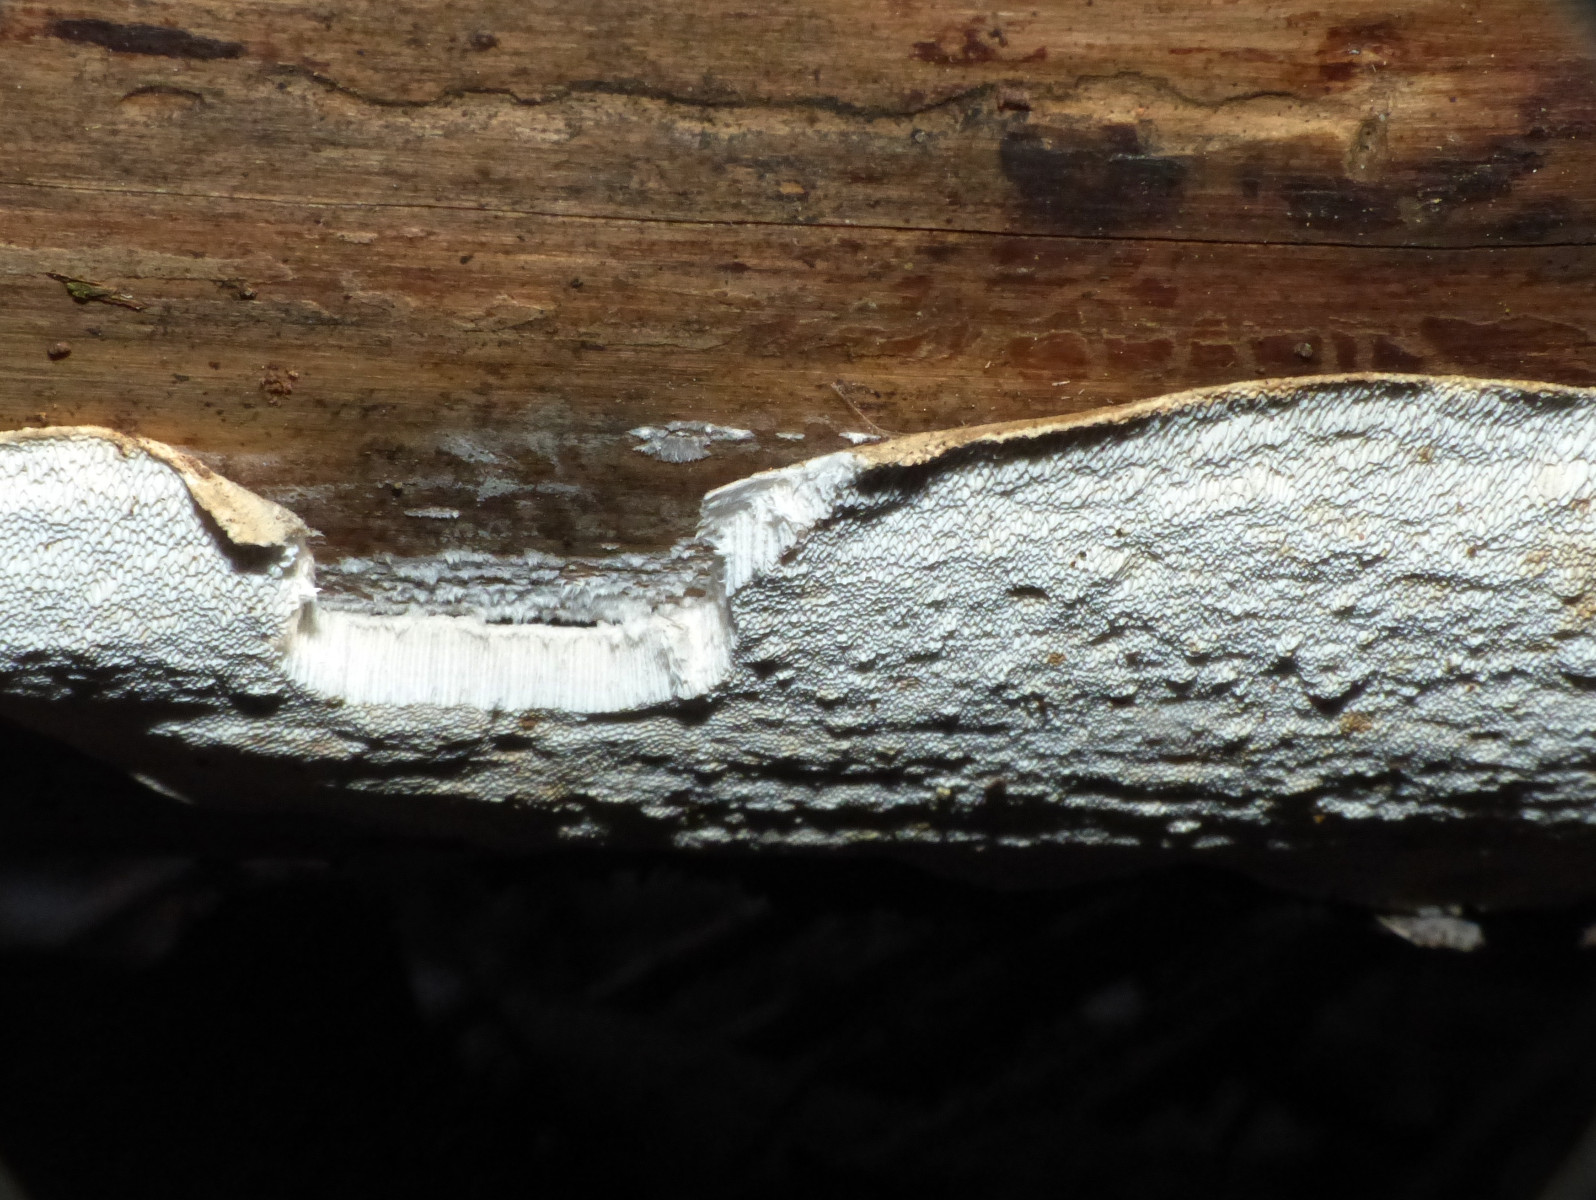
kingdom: Fungi
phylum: Basidiomycota
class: Agaricomycetes
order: Polyporales
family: Fomitopsidaceae
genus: Neoantrodia
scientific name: Neoantrodia serialis
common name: række-sejporesvamp
